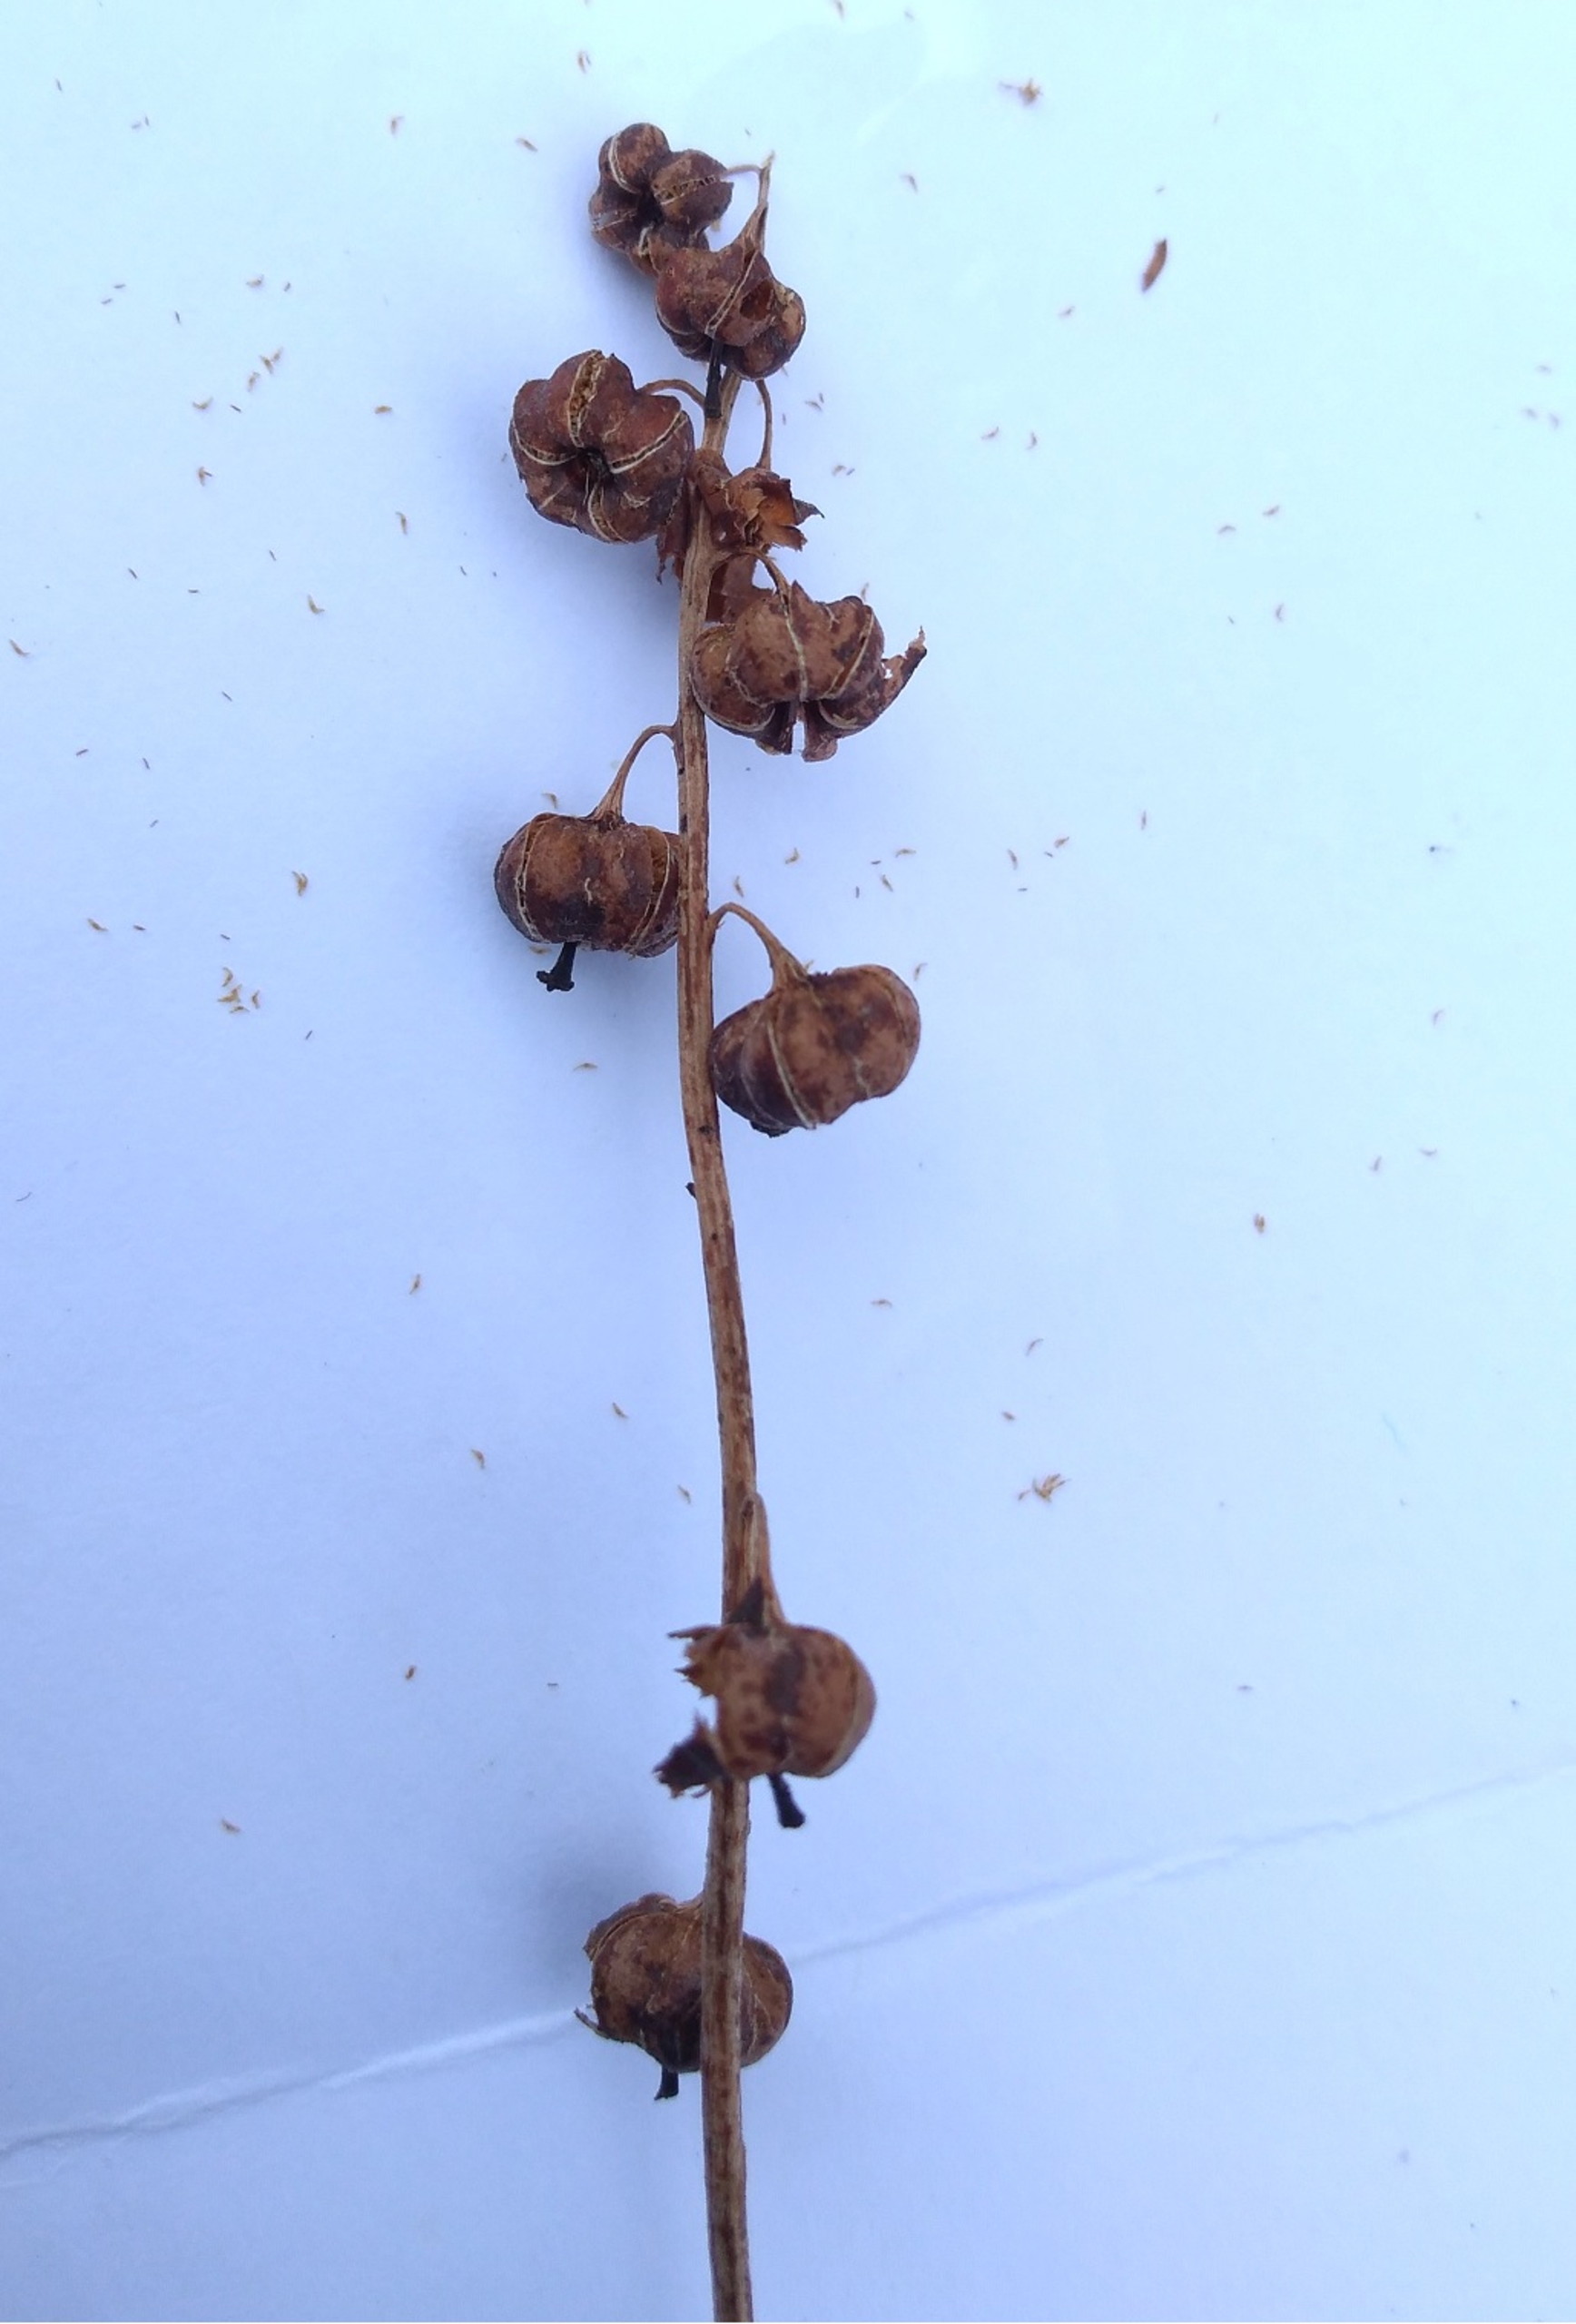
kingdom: Plantae
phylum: Tracheophyta
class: Magnoliopsida
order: Ericales
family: Ericaceae
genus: Pyrola
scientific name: Pyrola minor
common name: Liden vintergrøn
